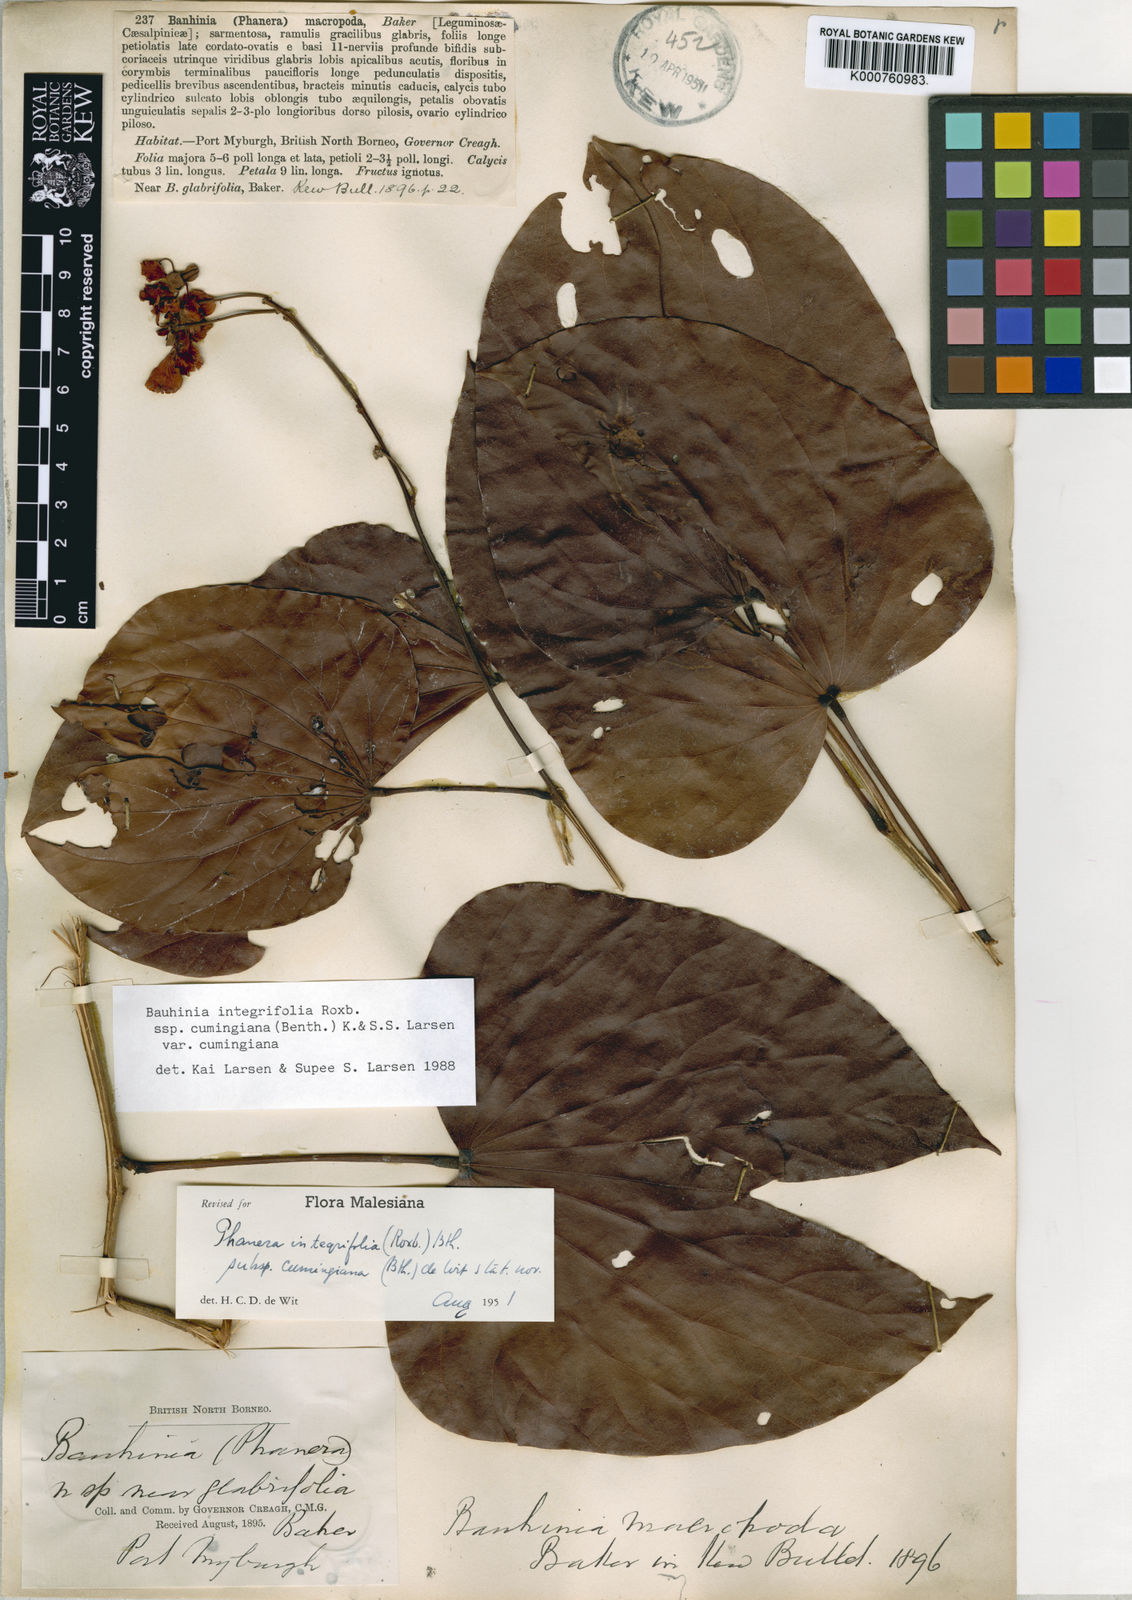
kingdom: Plantae
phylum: Tracheophyta
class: Magnoliopsida
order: Fabales
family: Fabaceae
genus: Phanera
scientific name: Phanera integrifolia
